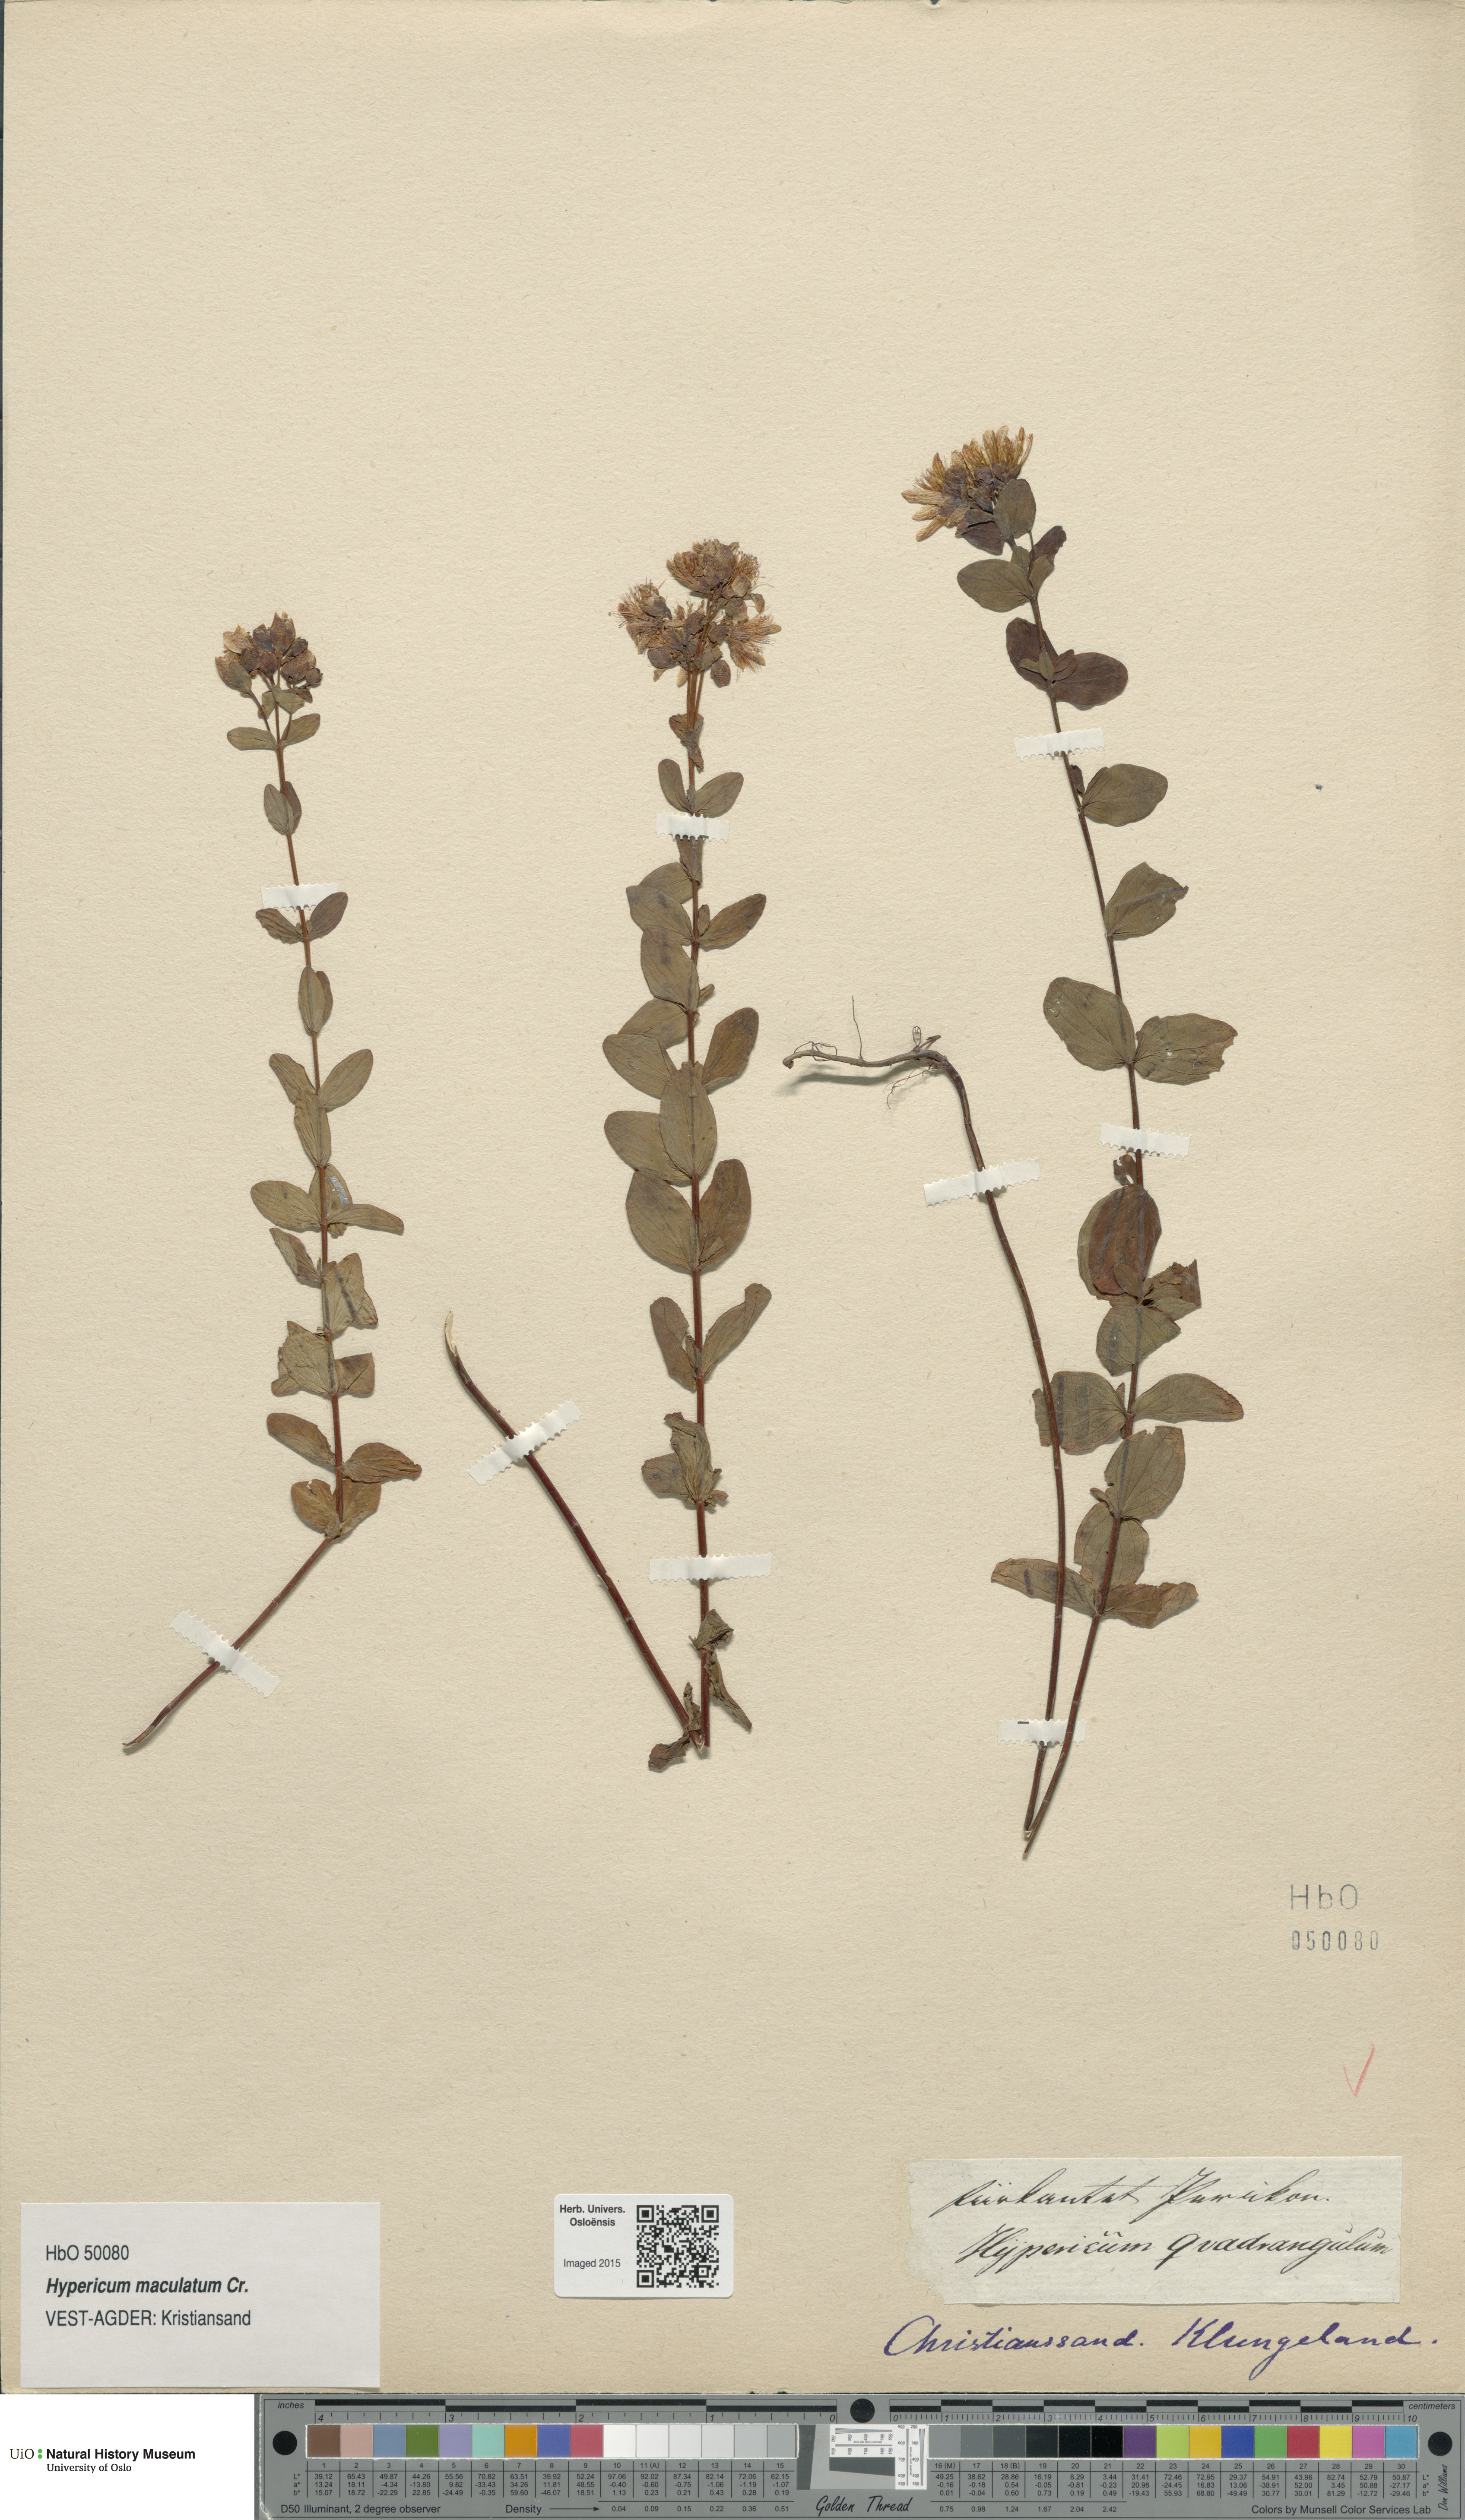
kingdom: Plantae
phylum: Tracheophyta
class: Magnoliopsida
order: Malpighiales
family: Hypericaceae
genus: Hypericum
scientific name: Hypericum maculatum
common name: Imperforate st. john's-wort
